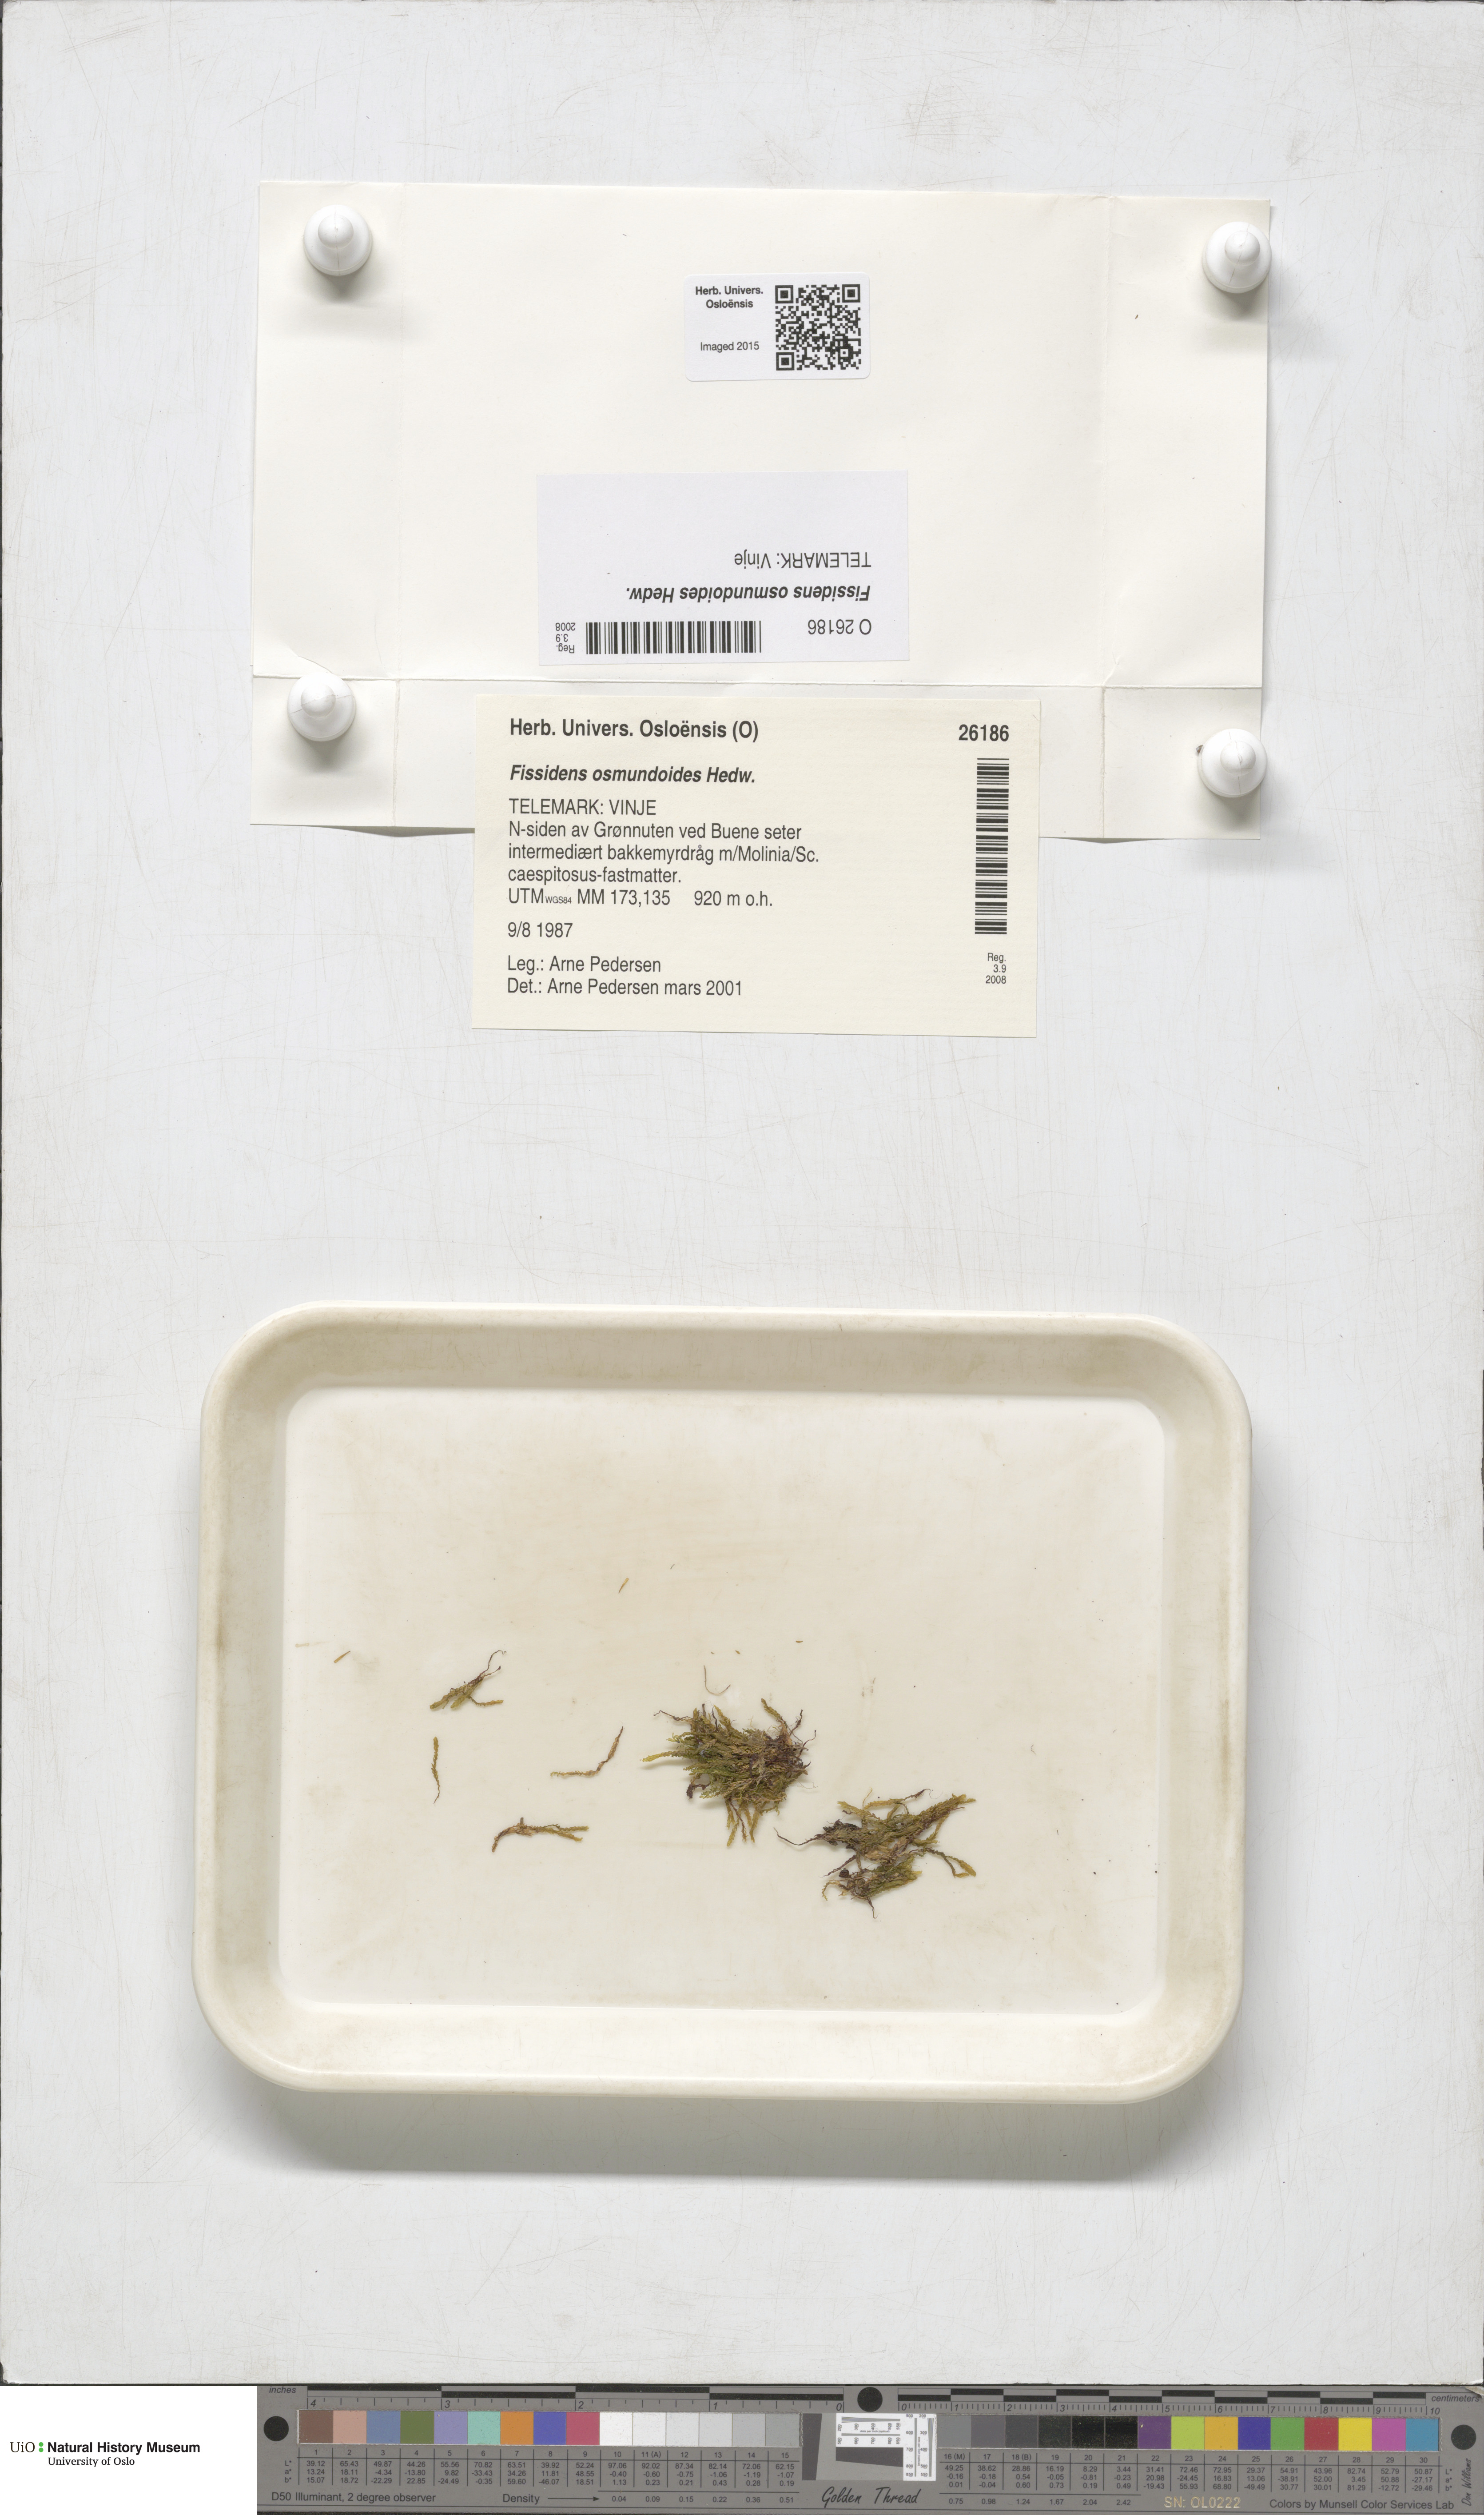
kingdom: Plantae
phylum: Bryophyta
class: Bryopsida
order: Dicranales
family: Fissidentaceae
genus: Fissidens
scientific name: Fissidens osmundoides
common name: Purple-stalked pocket moss
